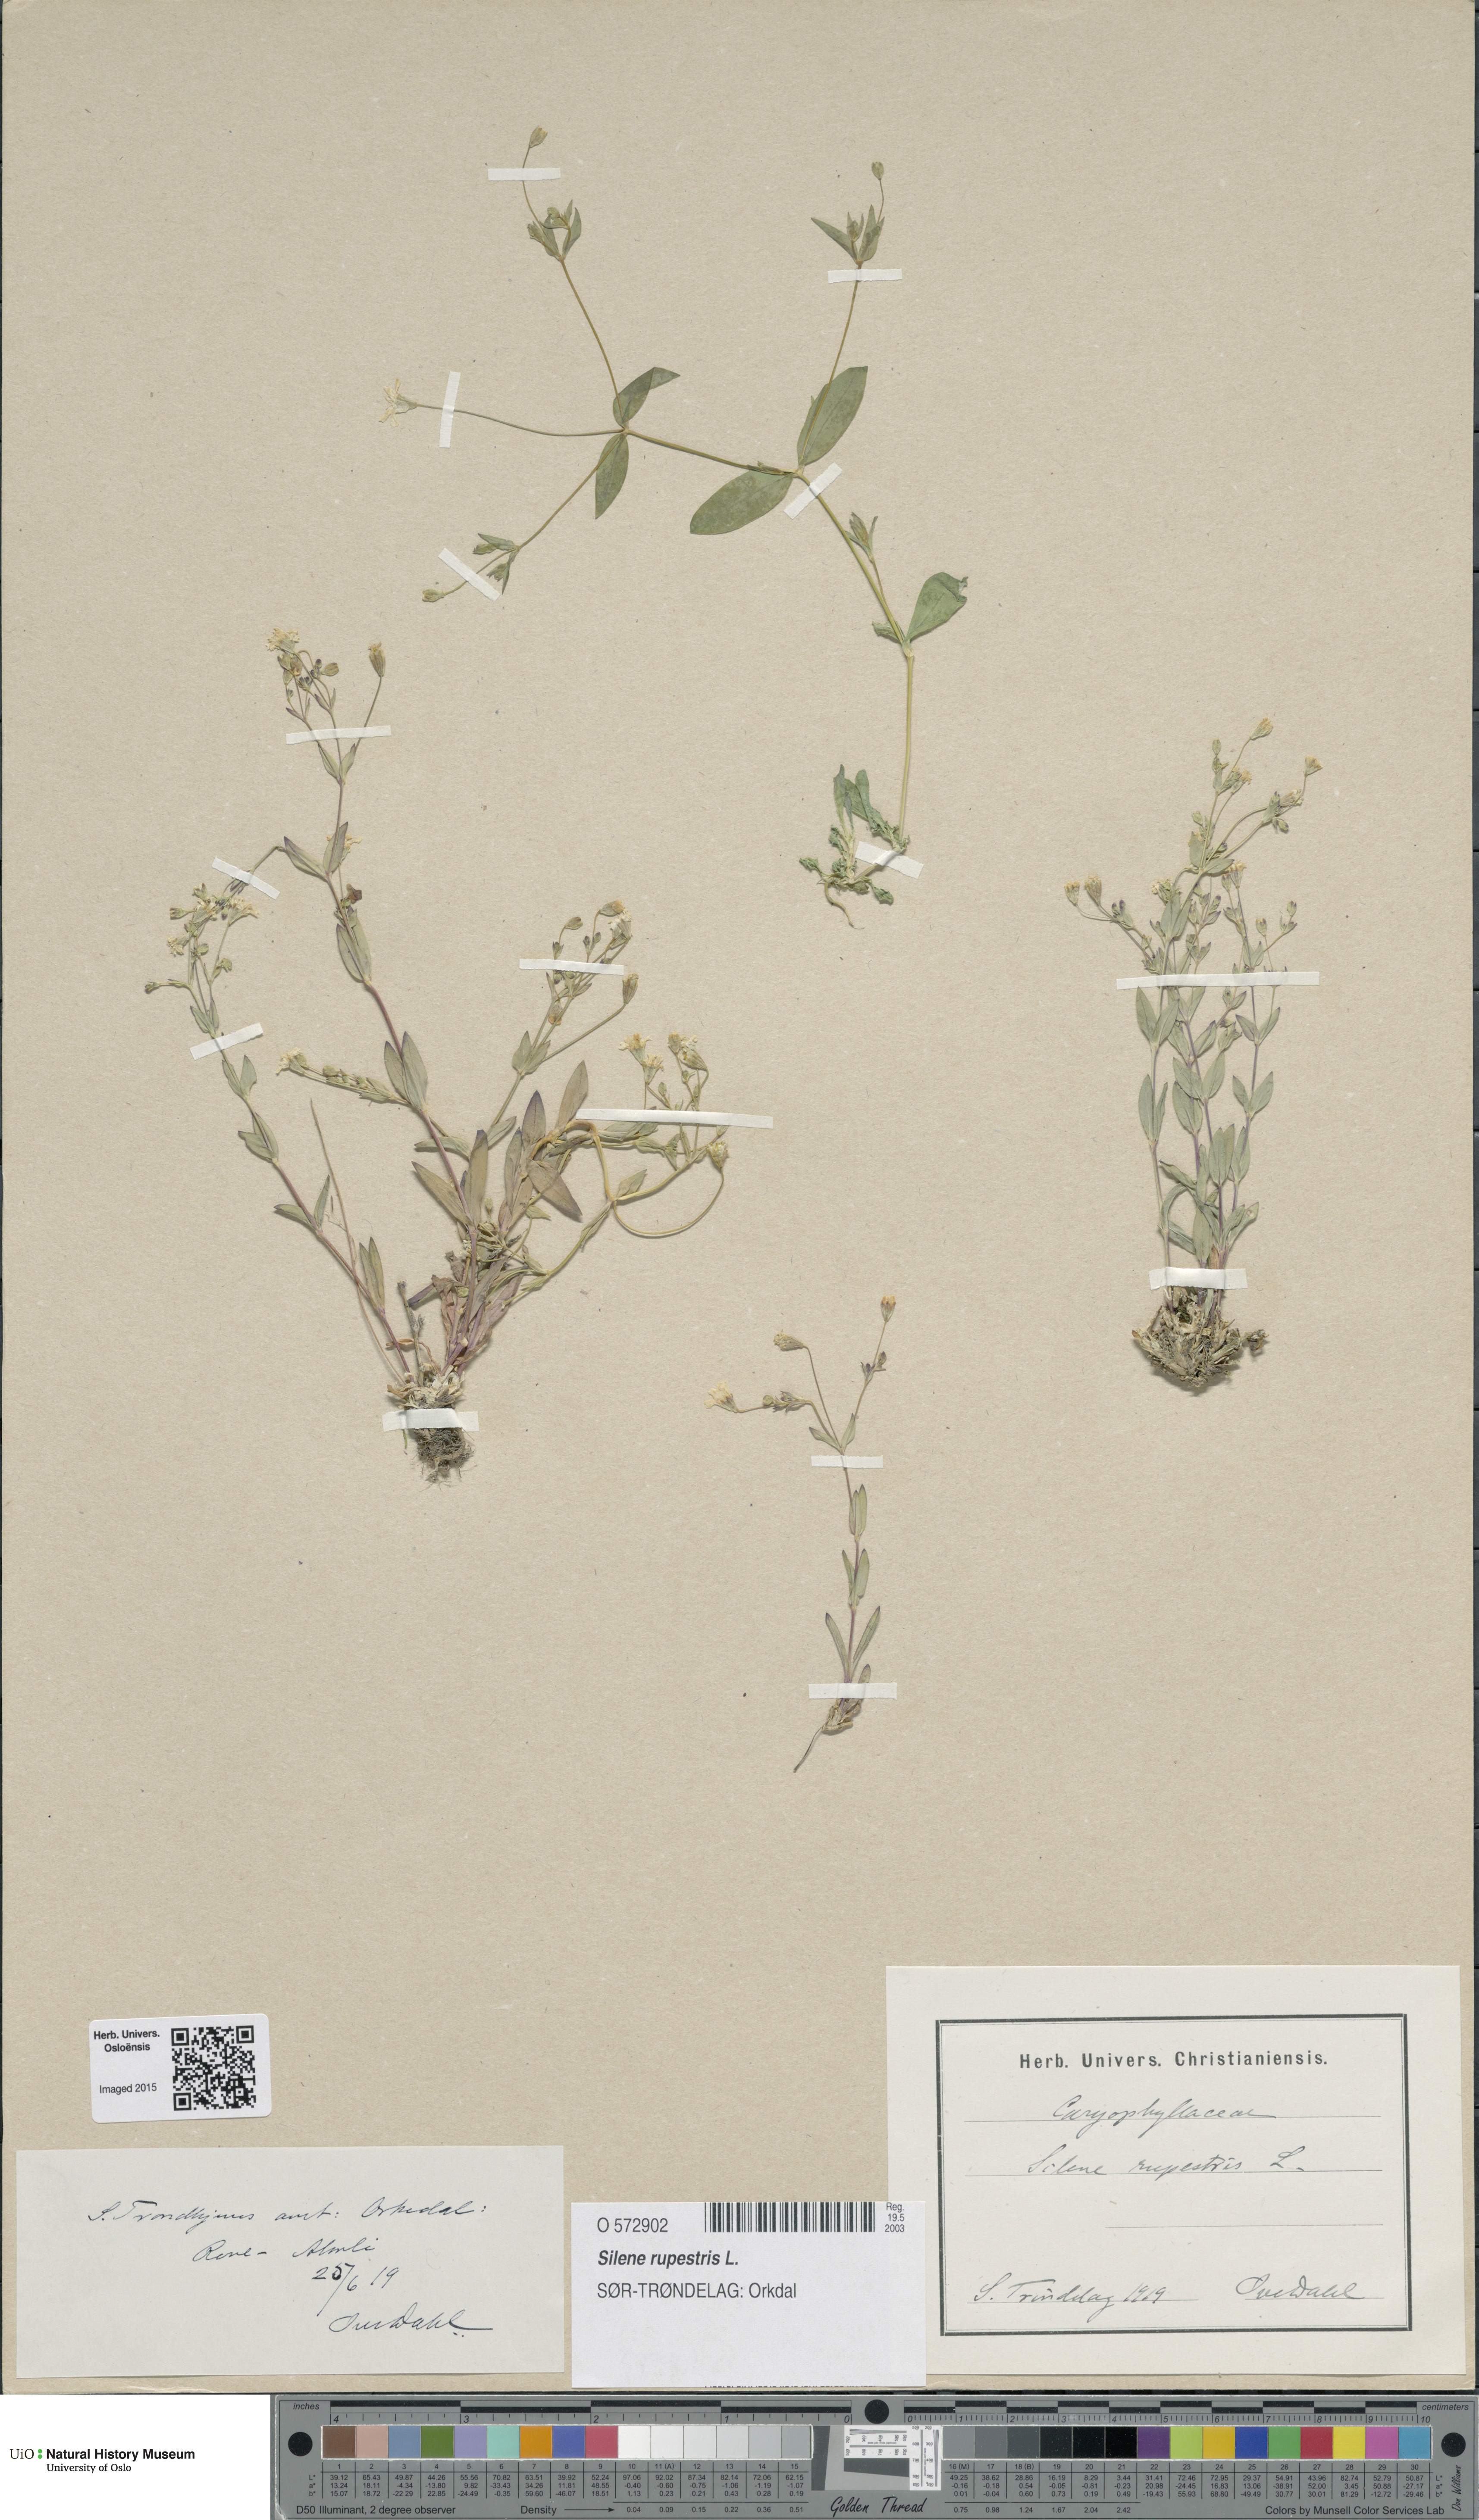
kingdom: Plantae
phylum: Tracheophyta
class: Magnoliopsida
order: Caryophyllales
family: Caryophyllaceae
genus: Atocion
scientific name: Atocion rupestre
